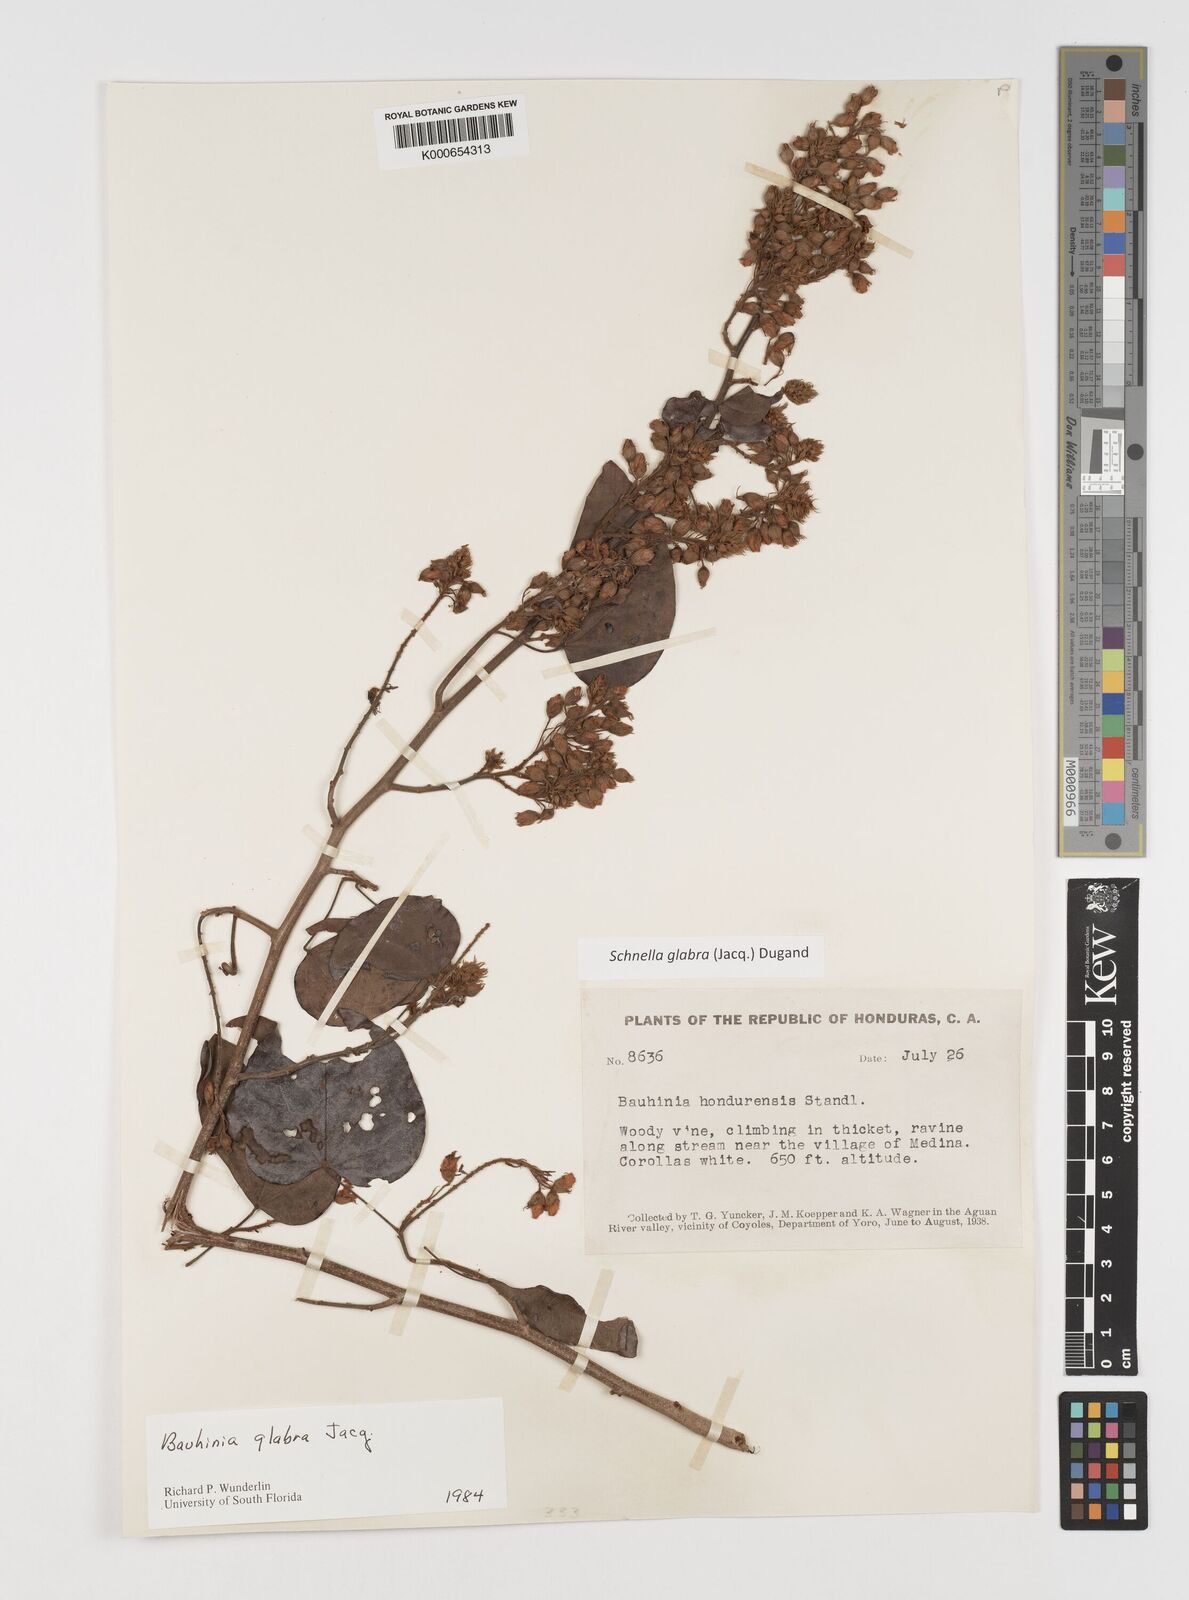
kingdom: Plantae
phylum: Tracheophyta
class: Magnoliopsida
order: Fabales
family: Fabaceae
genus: Schnella
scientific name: Schnella glabra
